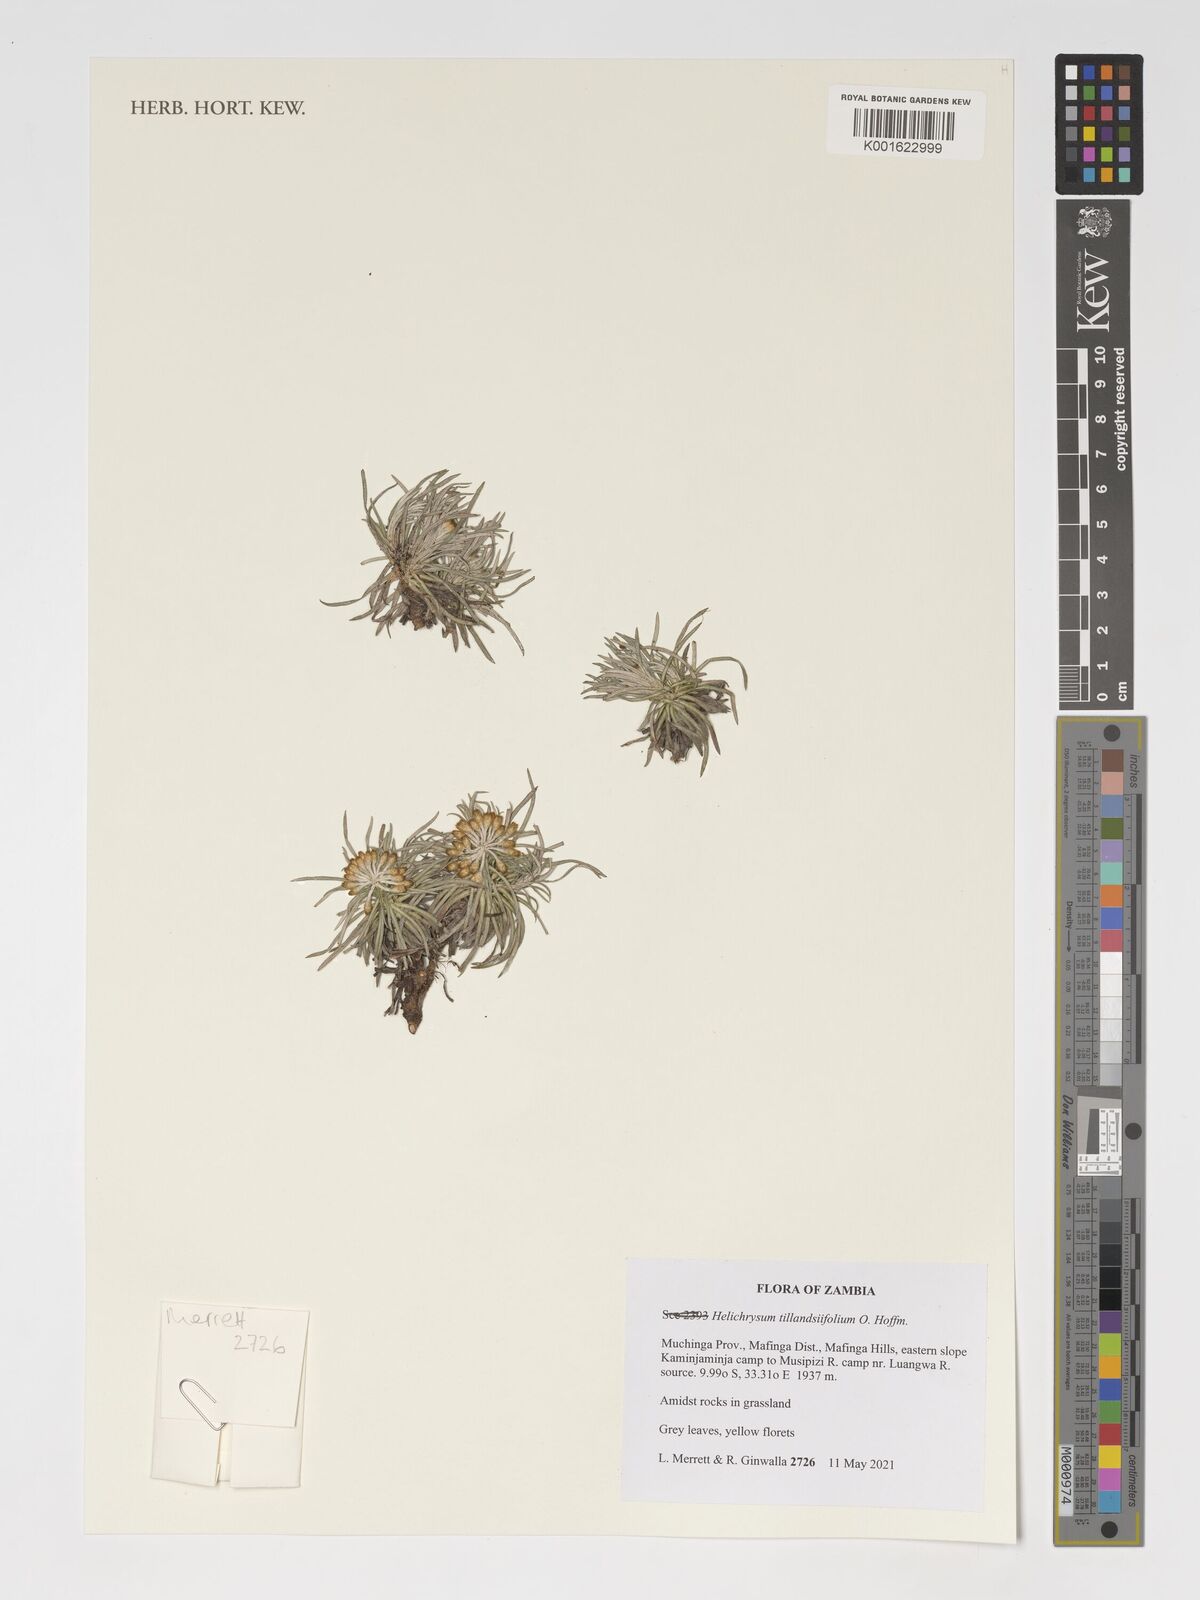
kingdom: Plantae
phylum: Tracheophyta
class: Magnoliopsida
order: Asterales
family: Asteraceae
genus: Helichrysum
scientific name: Helichrysum tillandsiifolium
